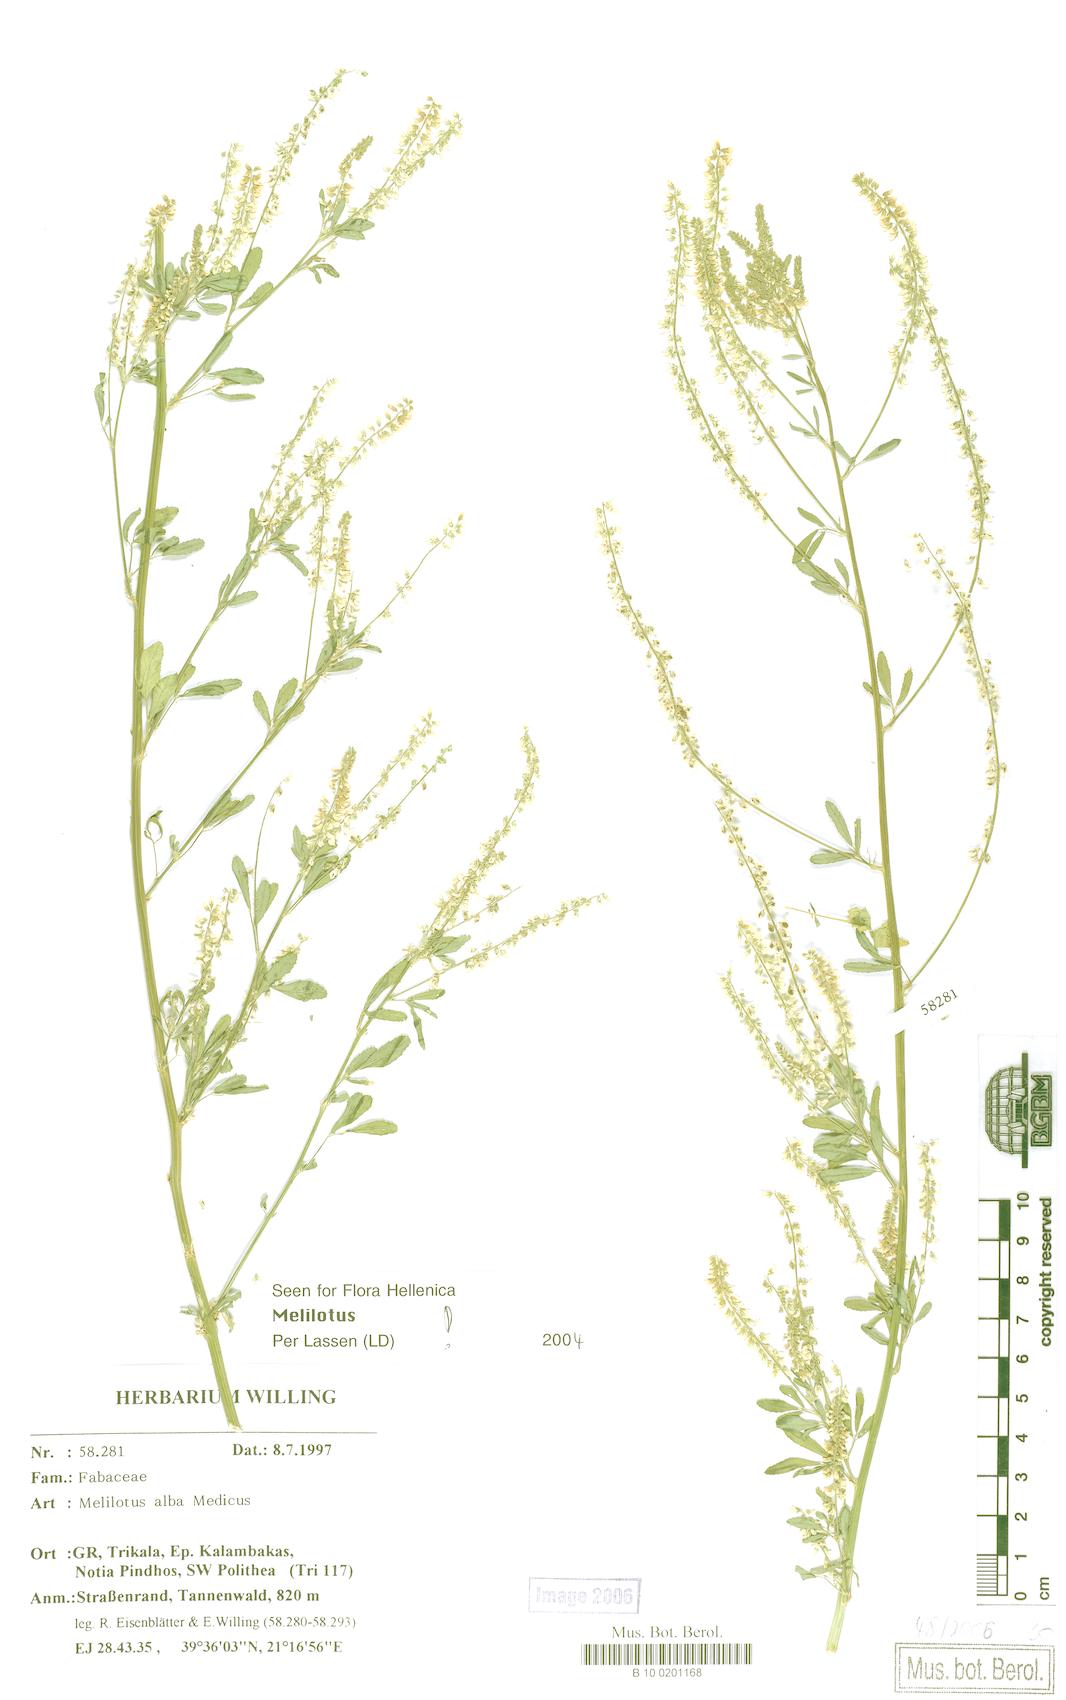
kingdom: Plantae
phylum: Tracheophyta
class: Magnoliopsida
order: Fabales
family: Fabaceae
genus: Melilotus
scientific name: Melilotus albus
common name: White melilot
